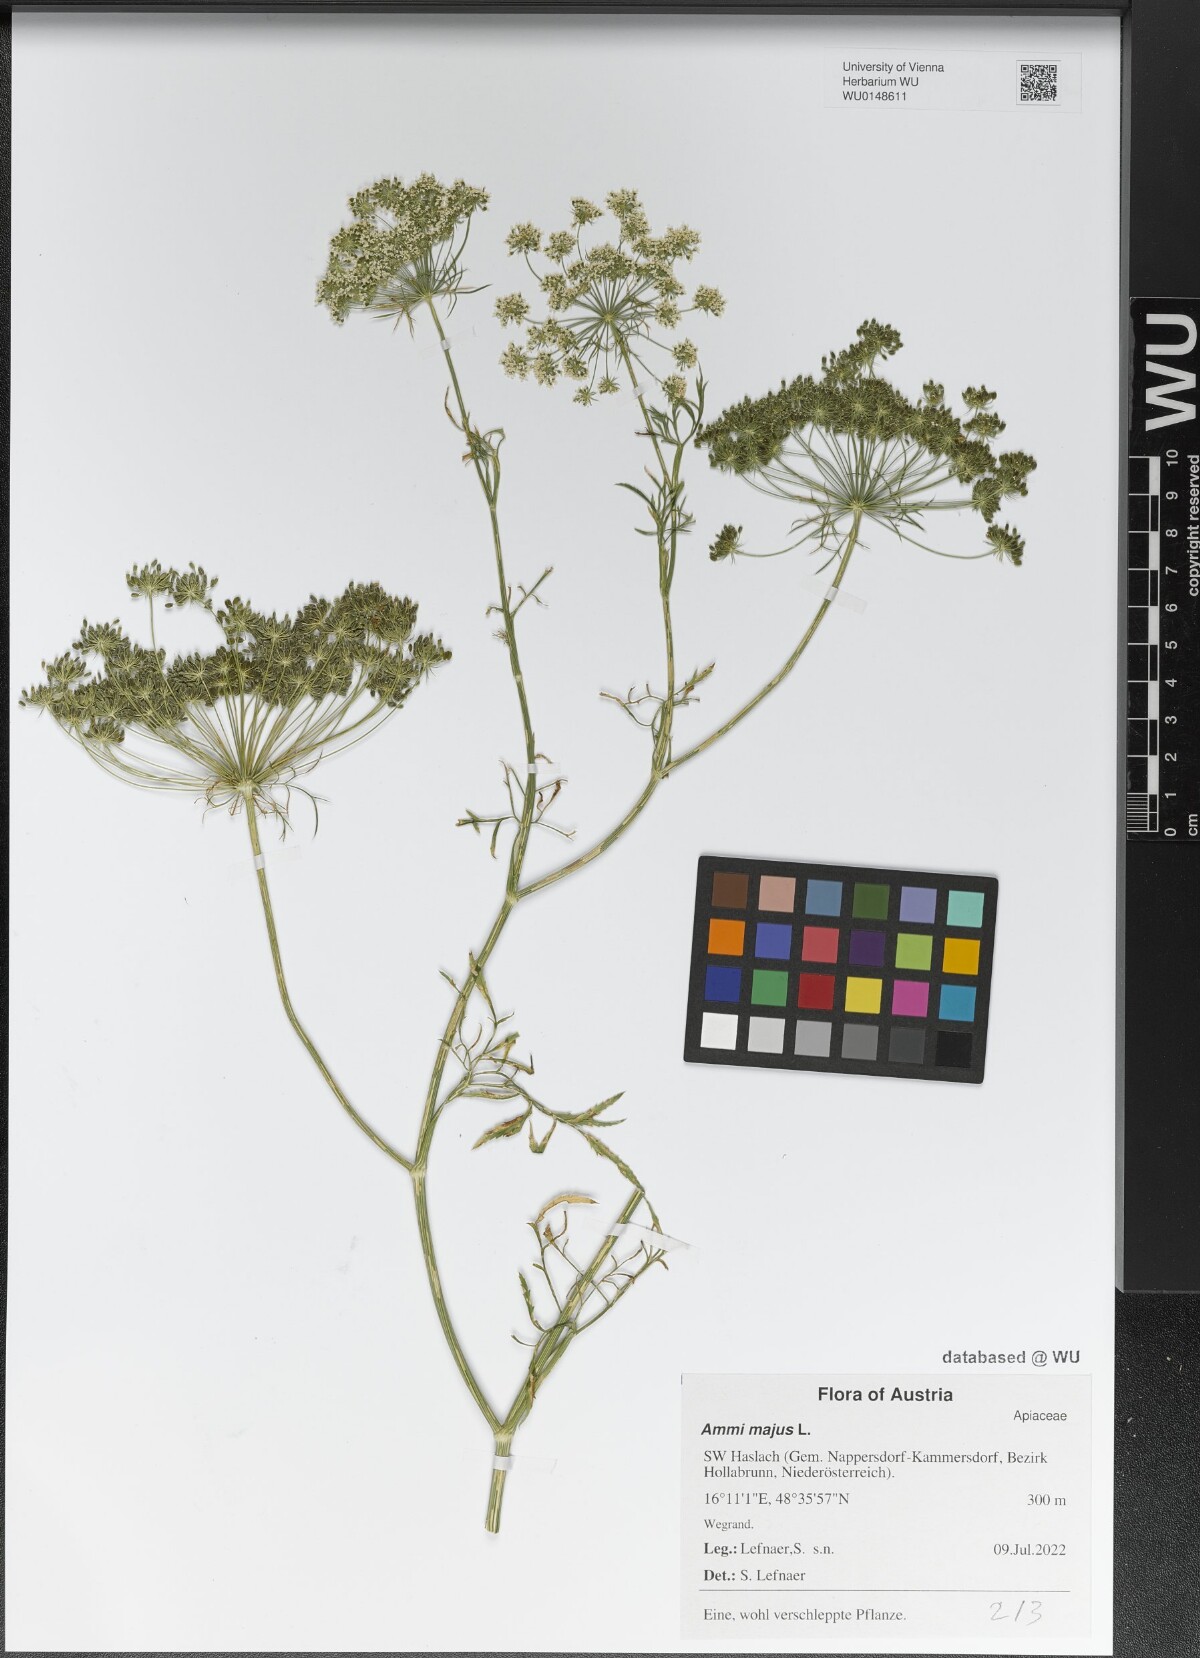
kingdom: Plantae
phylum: Tracheophyta
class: Magnoliopsida
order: Apiales
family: Apiaceae
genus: Ammi
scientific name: Ammi majus
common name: Bullwort
